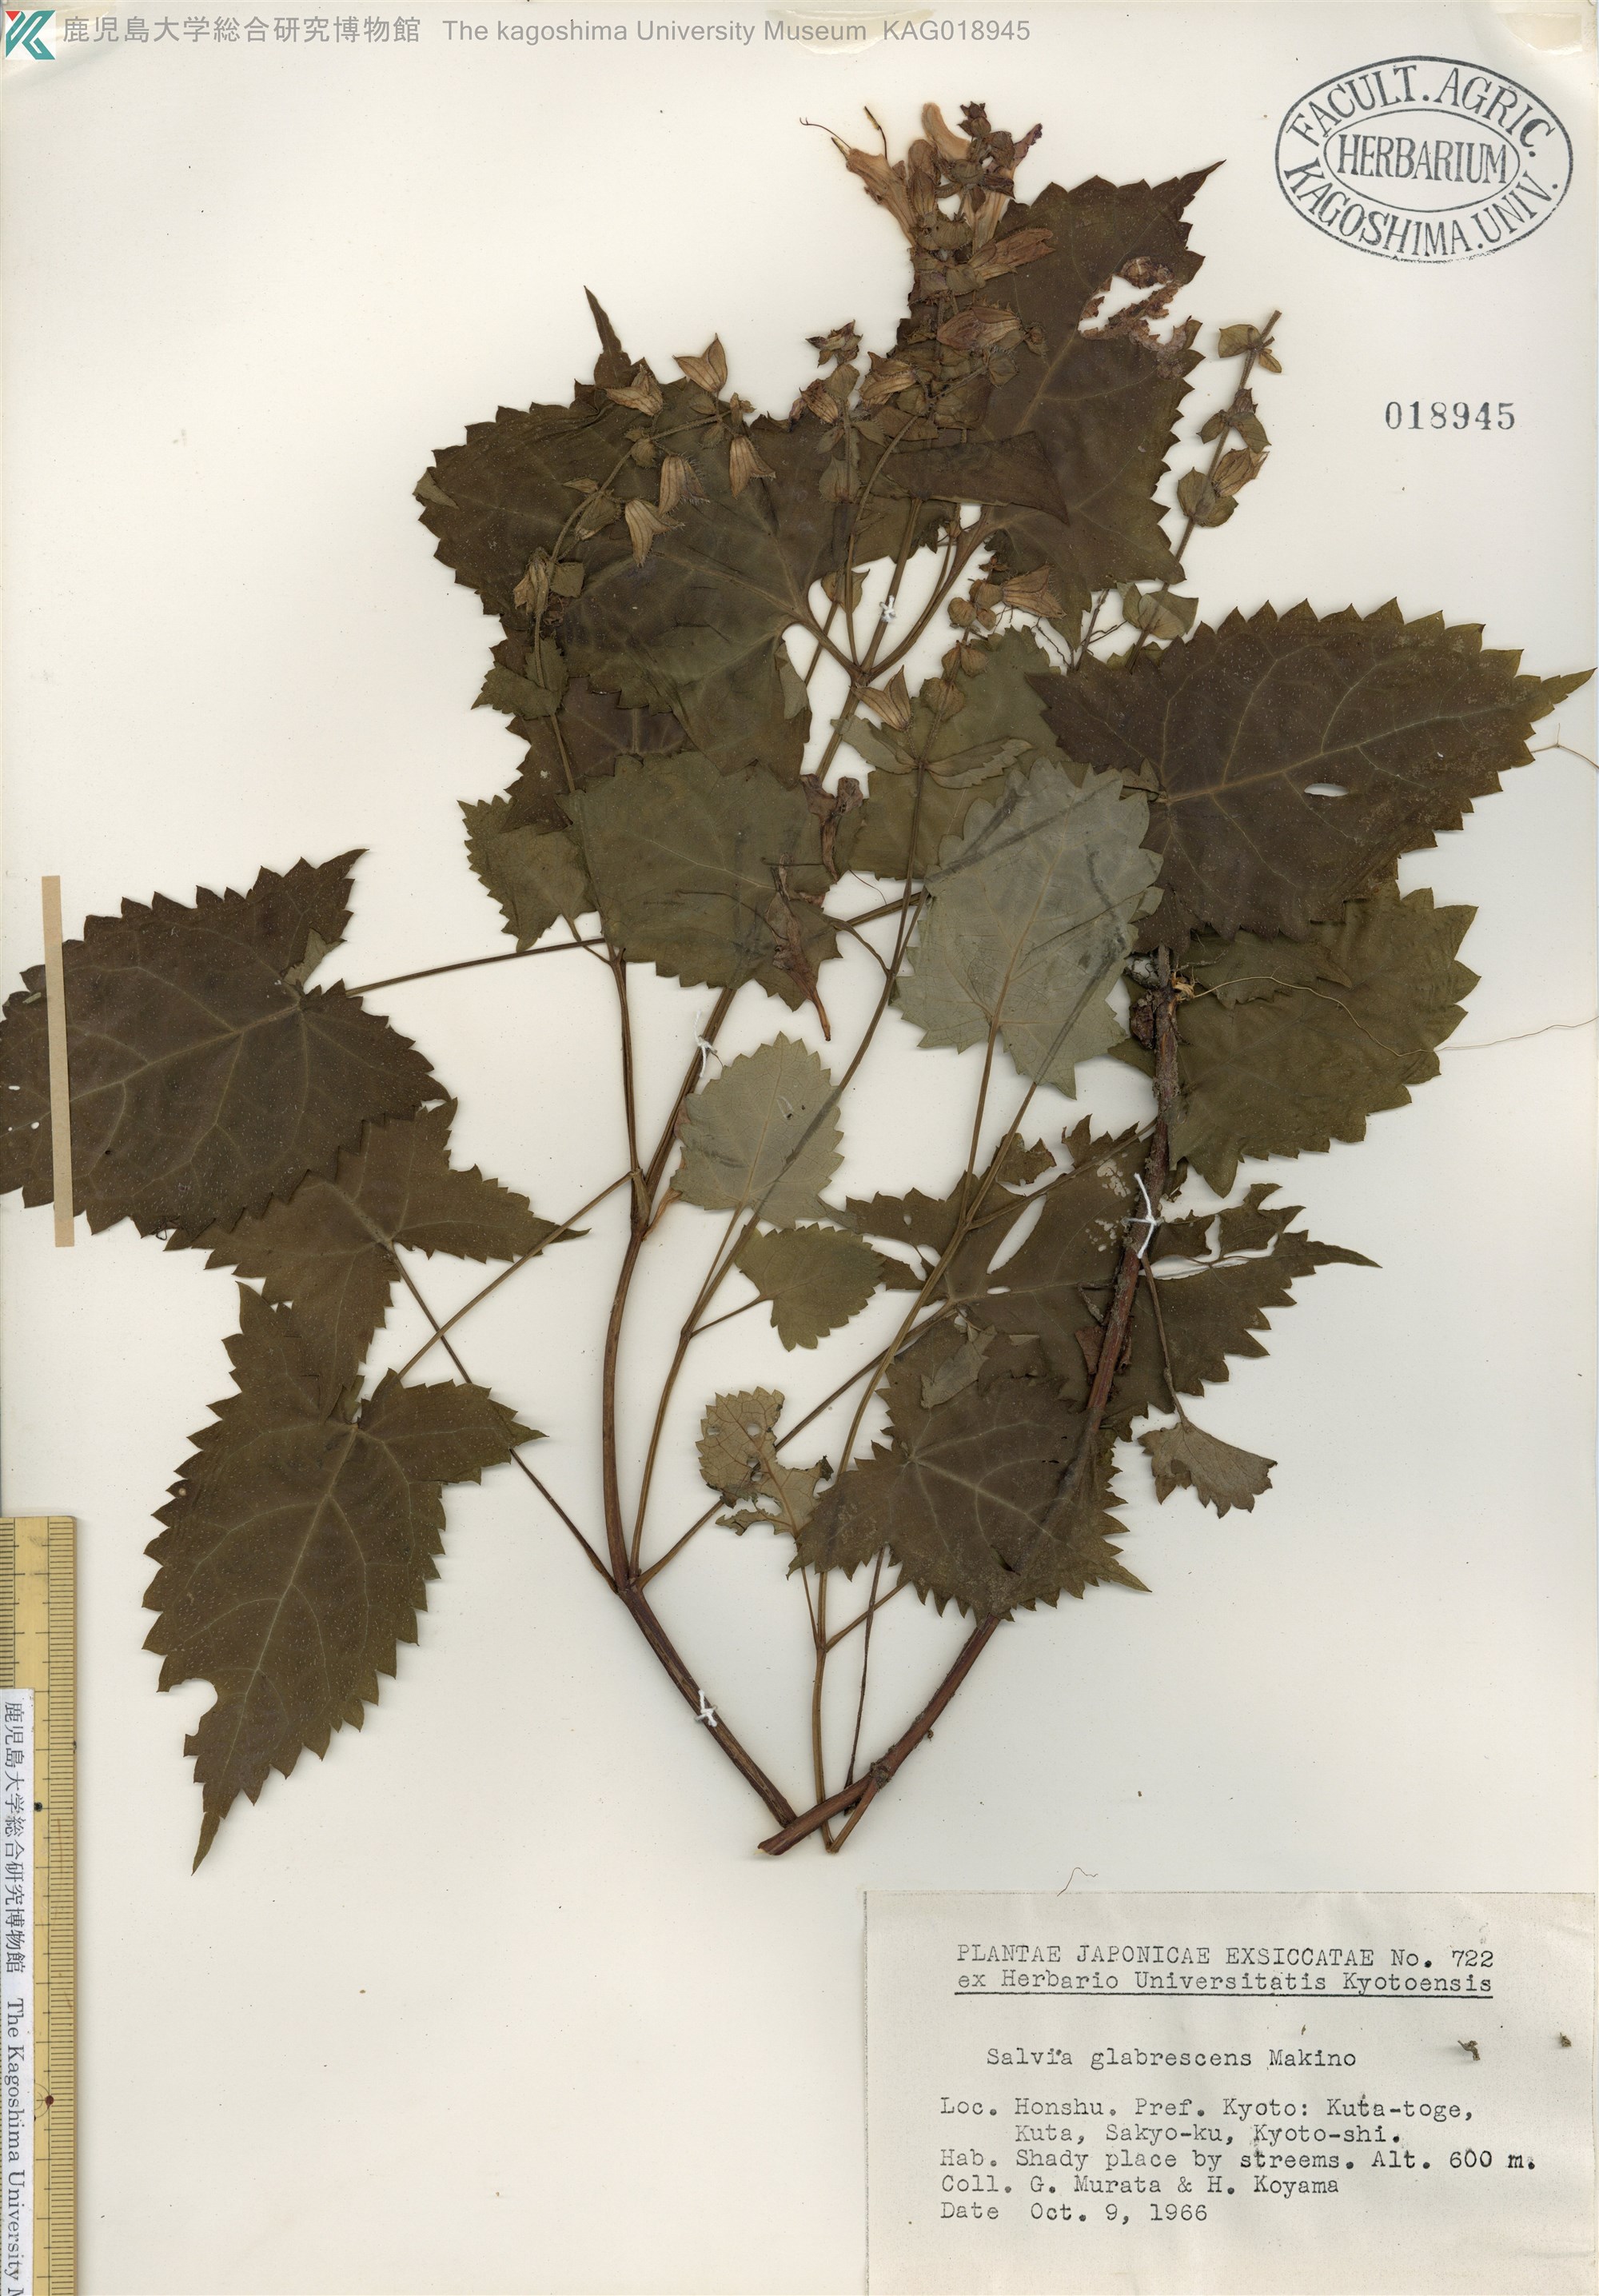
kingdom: Plantae
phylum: Tracheophyta
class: Magnoliopsida
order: Lamiales
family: Lamiaceae
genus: Salvia
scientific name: Salvia glabrescens
